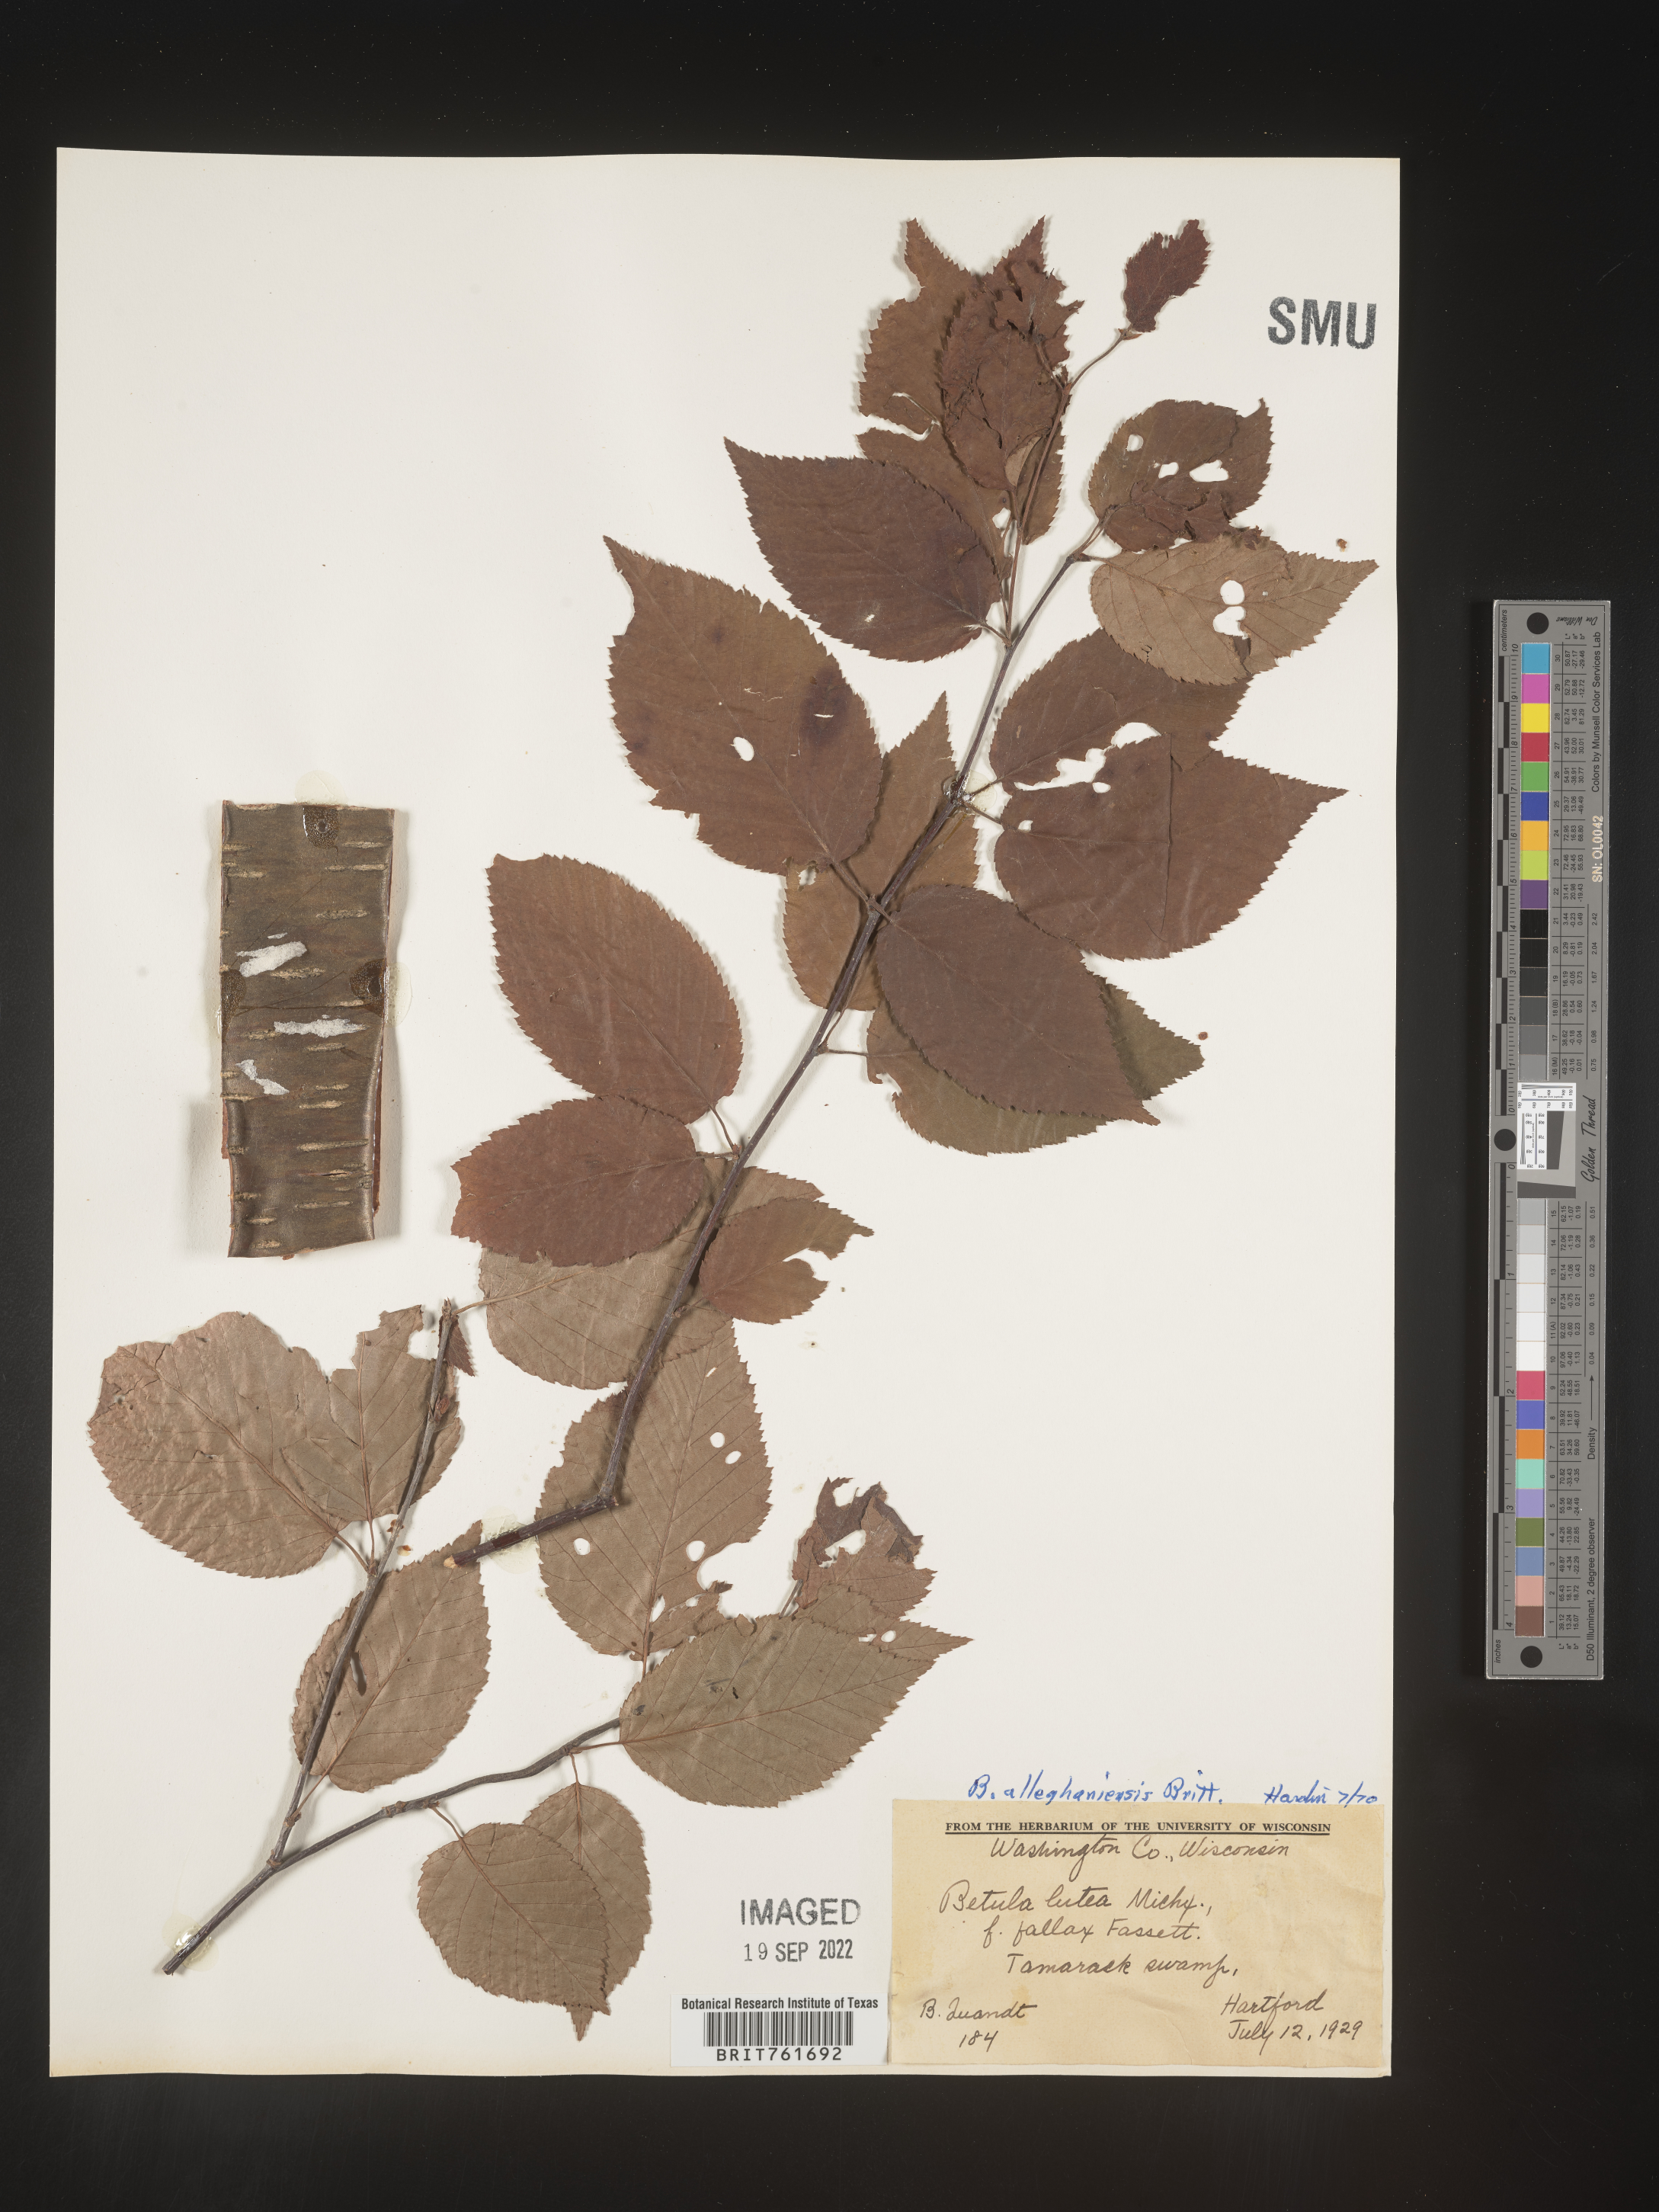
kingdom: Plantae
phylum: Tracheophyta
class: Magnoliopsida
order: Fagales
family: Betulaceae
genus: Betula
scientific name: Betula alleghaniensis
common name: Yellow birch
